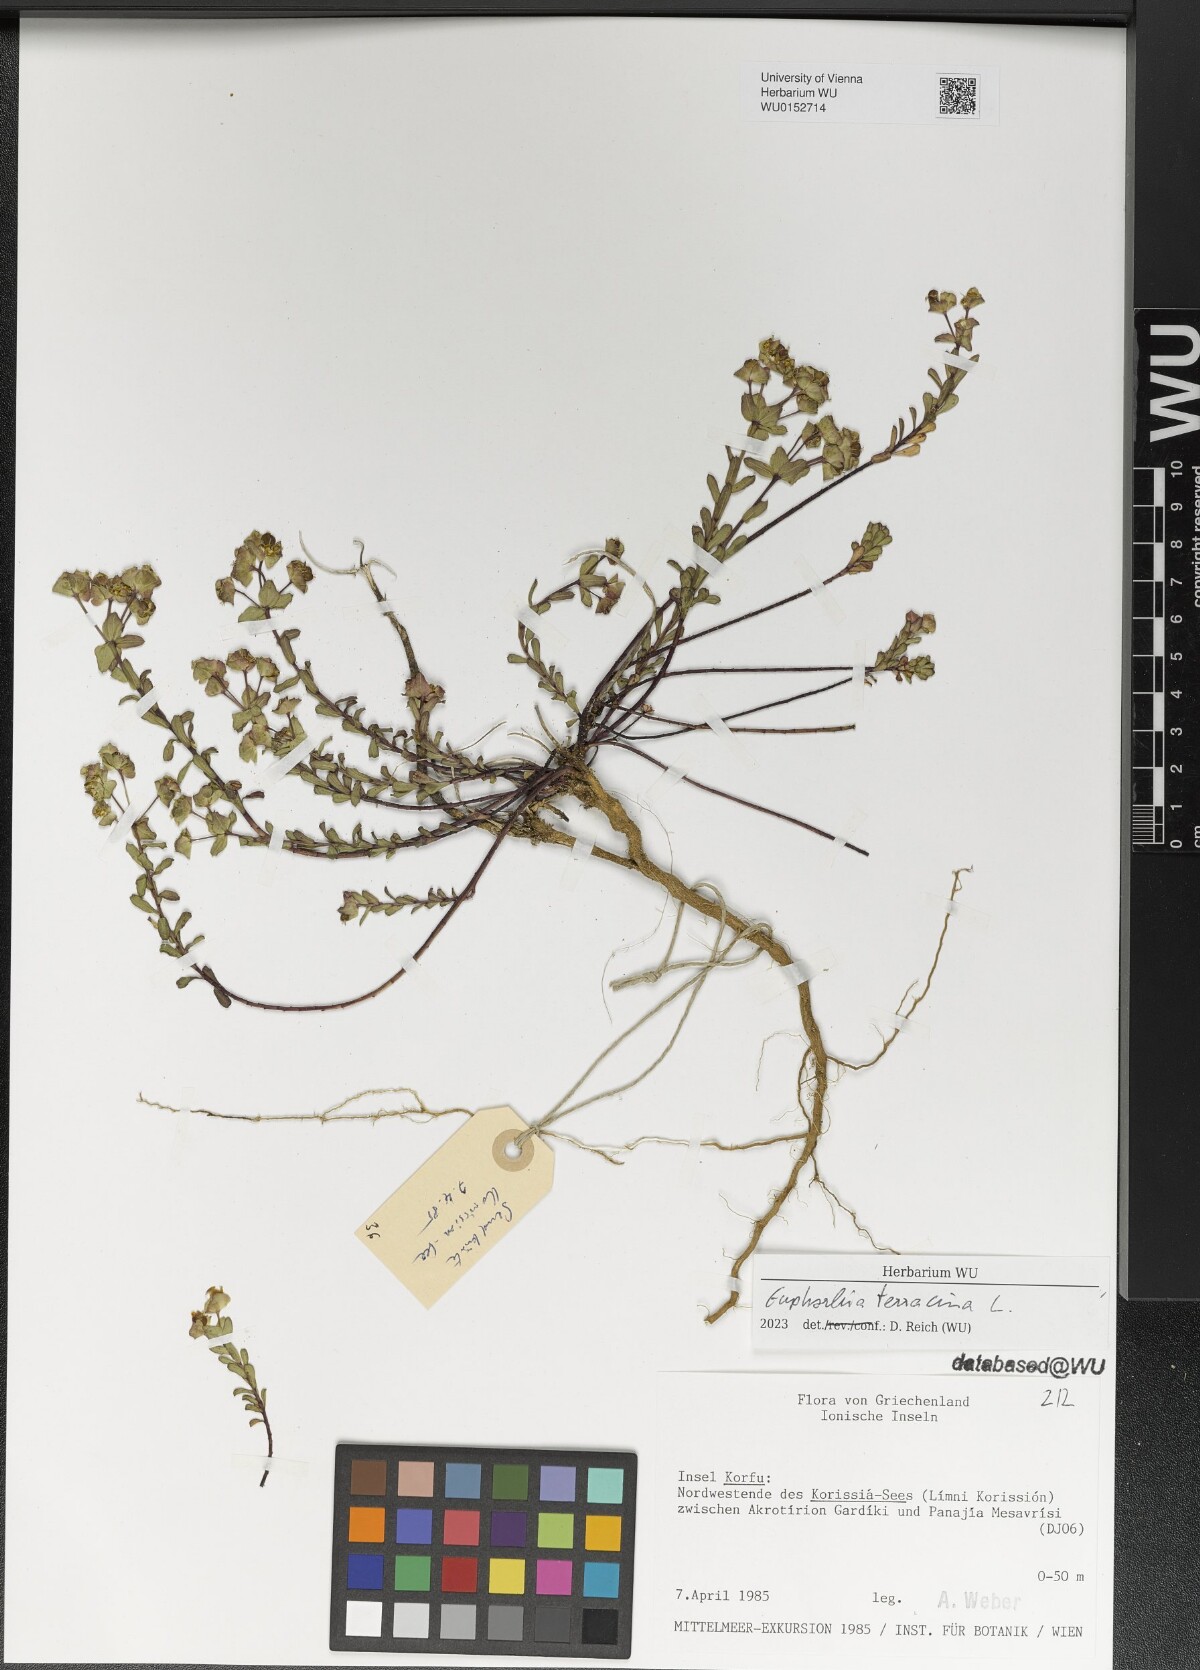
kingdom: Plantae
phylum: Tracheophyta
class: Magnoliopsida
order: Malpighiales
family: Euphorbiaceae
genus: Euphorbia
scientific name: Euphorbia terracina
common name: Geraldton carnation weed
